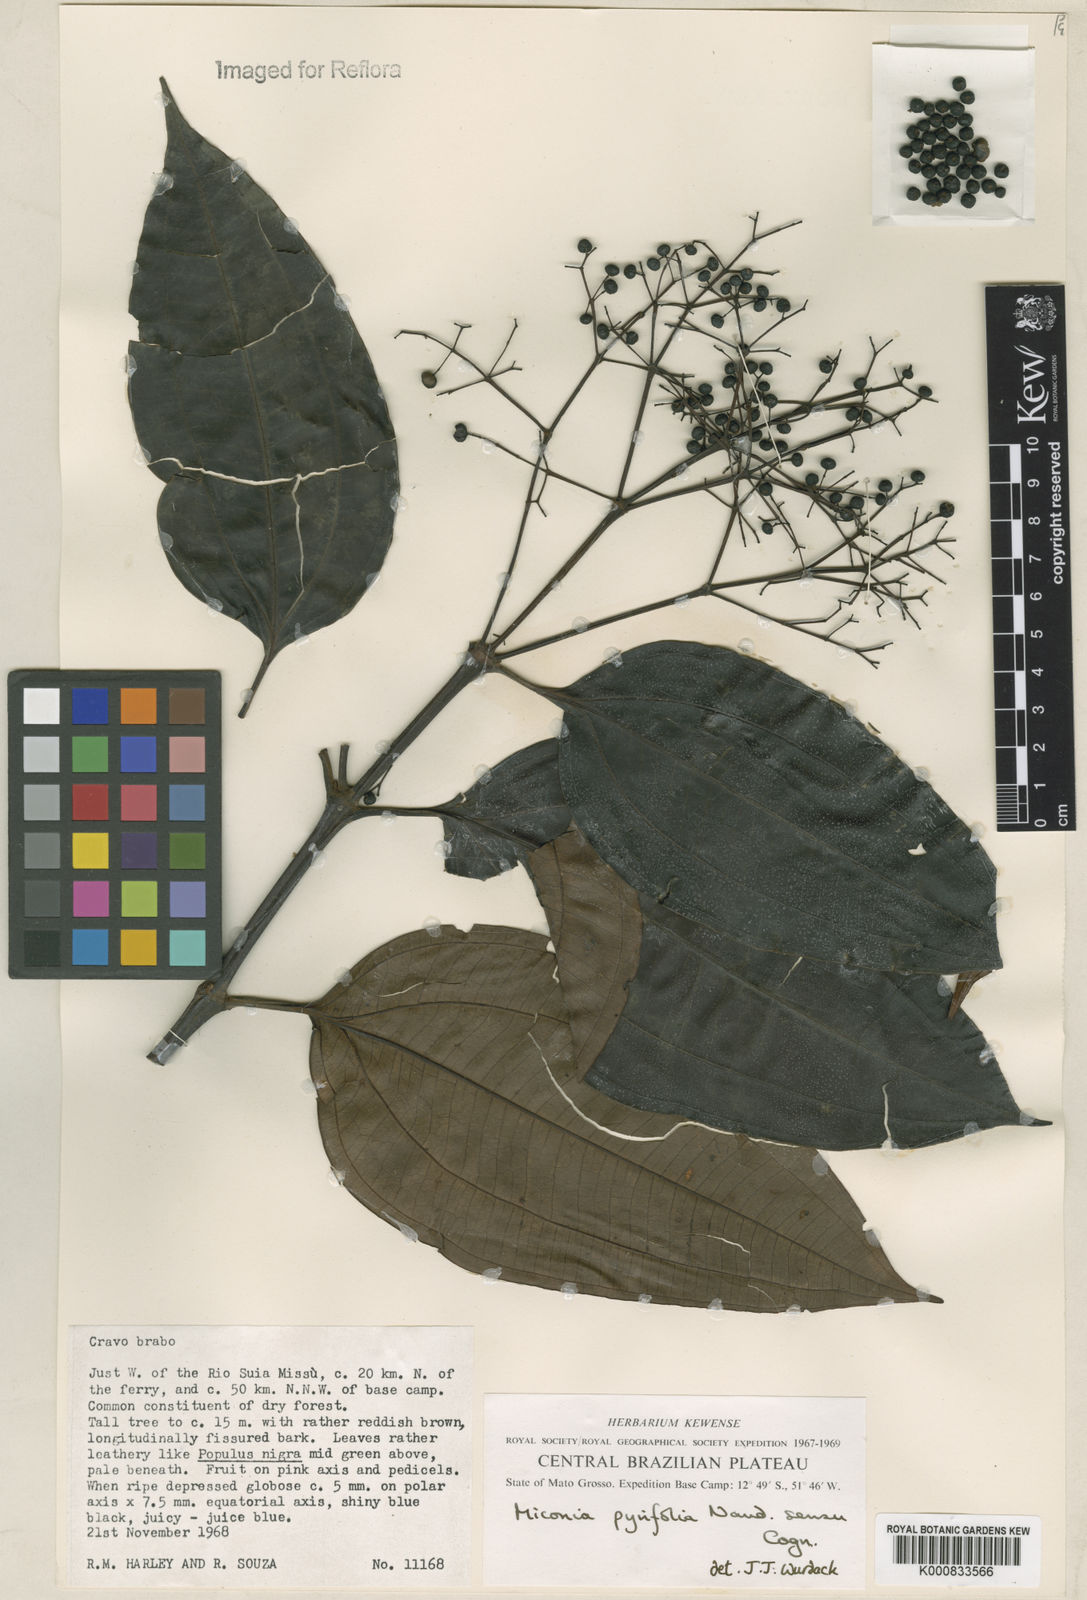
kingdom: Plantae
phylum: Tracheophyta
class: Magnoliopsida
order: Myrtales
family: Melastomataceae
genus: Miconia
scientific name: Miconia pyrifolia
